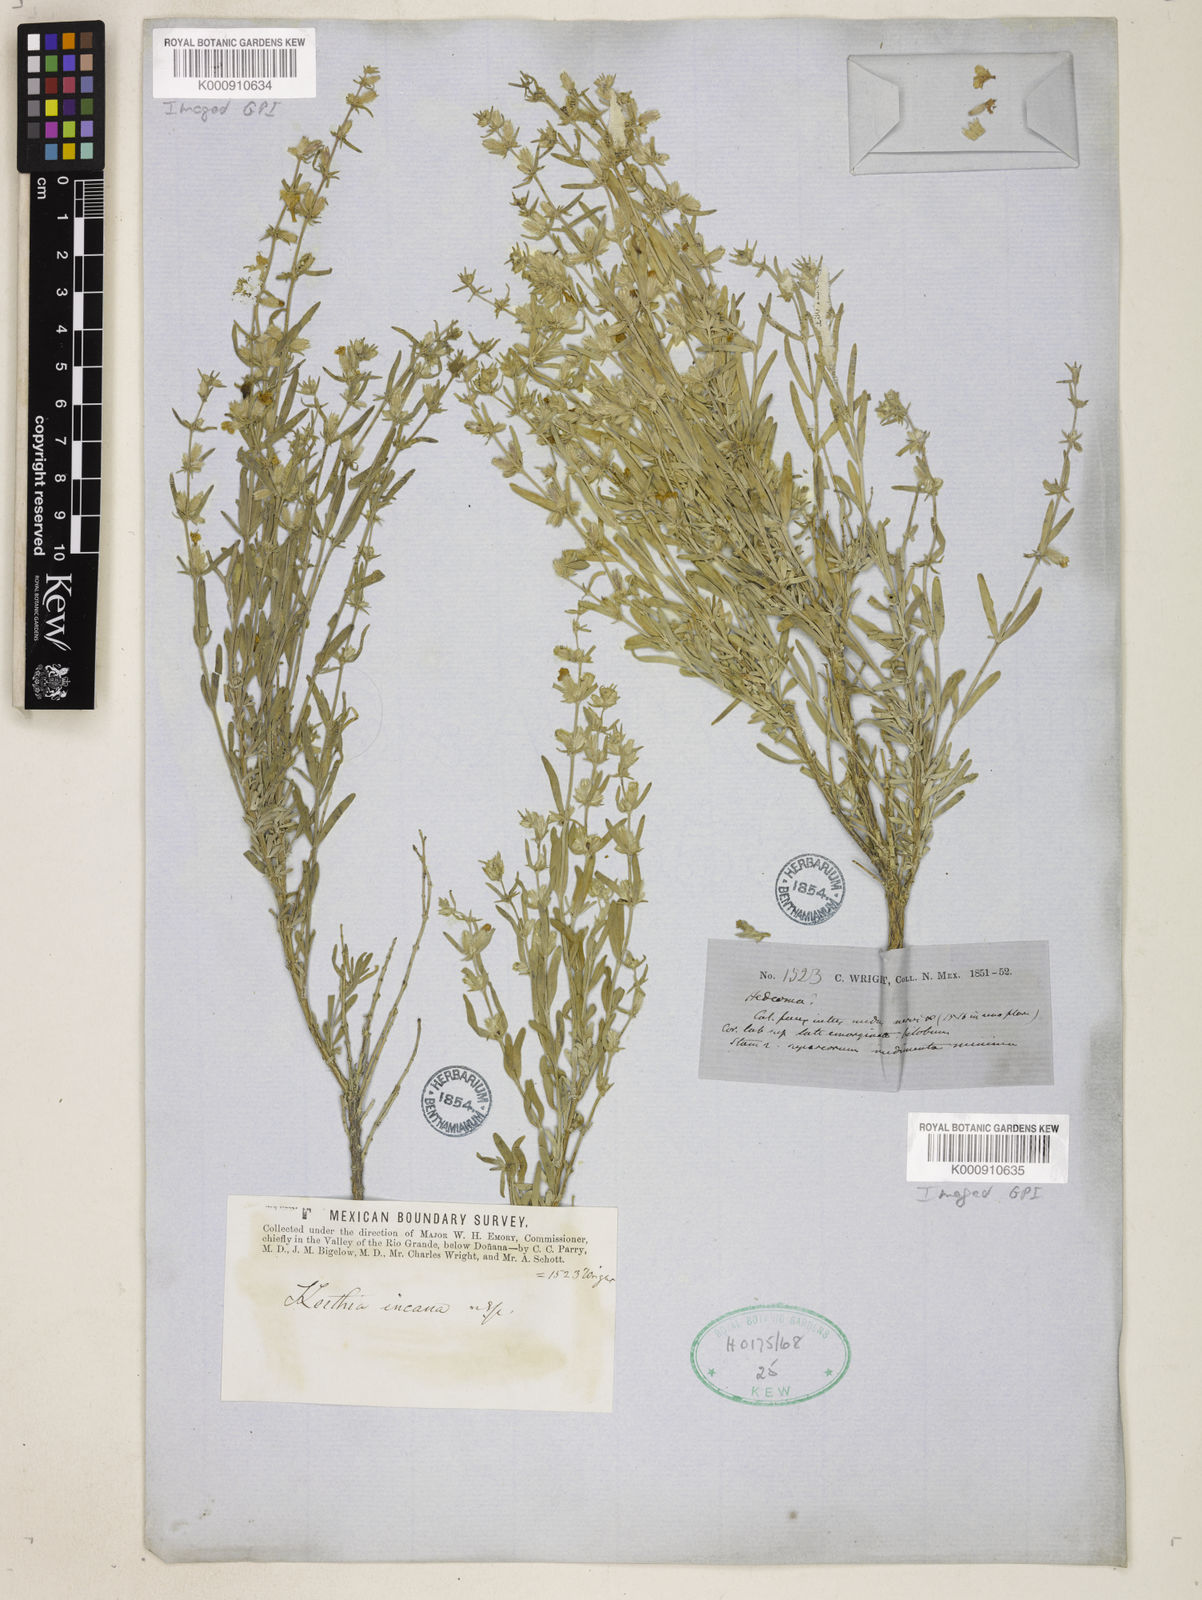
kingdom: Plantae
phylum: Tracheophyta
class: Magnoliopsida
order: Lamiales
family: Lamiaceae
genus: Poliomintha
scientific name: Poliomintha incana
